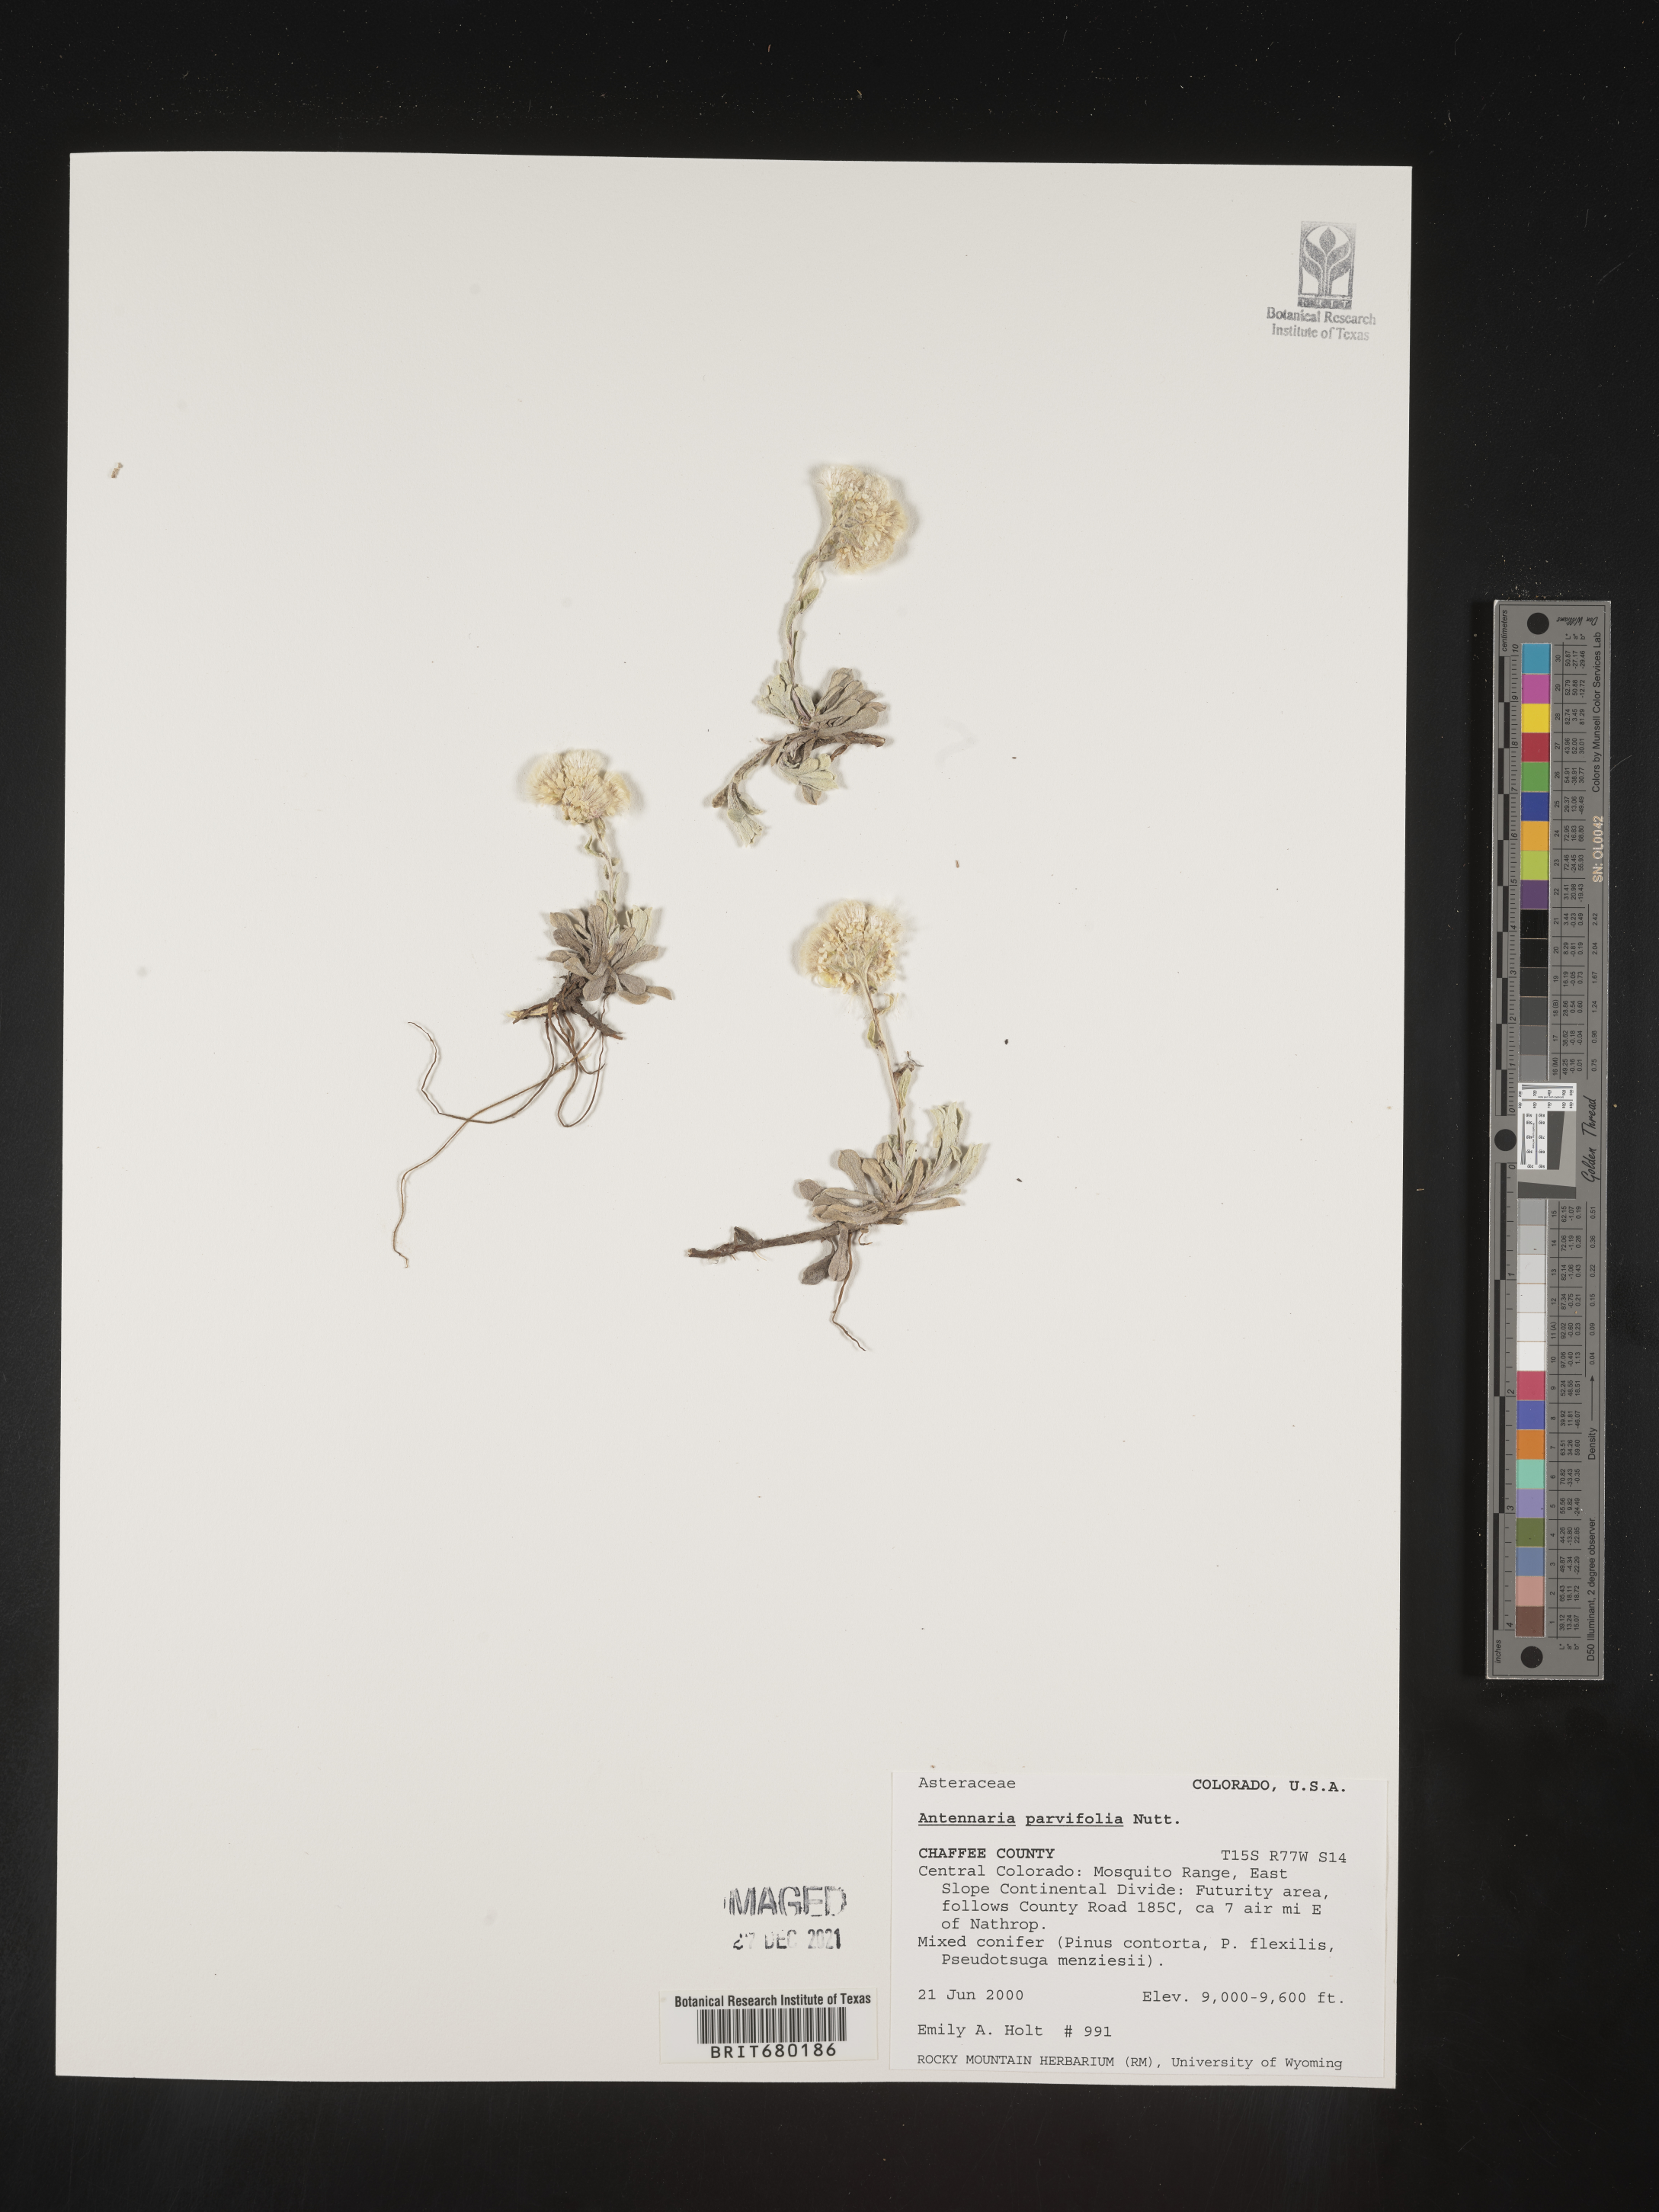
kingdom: Plantae
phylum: Tracheophyta
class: Magnoliopsida
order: Asterales
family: Asteraceae
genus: Antennaria
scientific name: Antennaria plantaginifolia
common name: Plantain-leaved pussytoes
